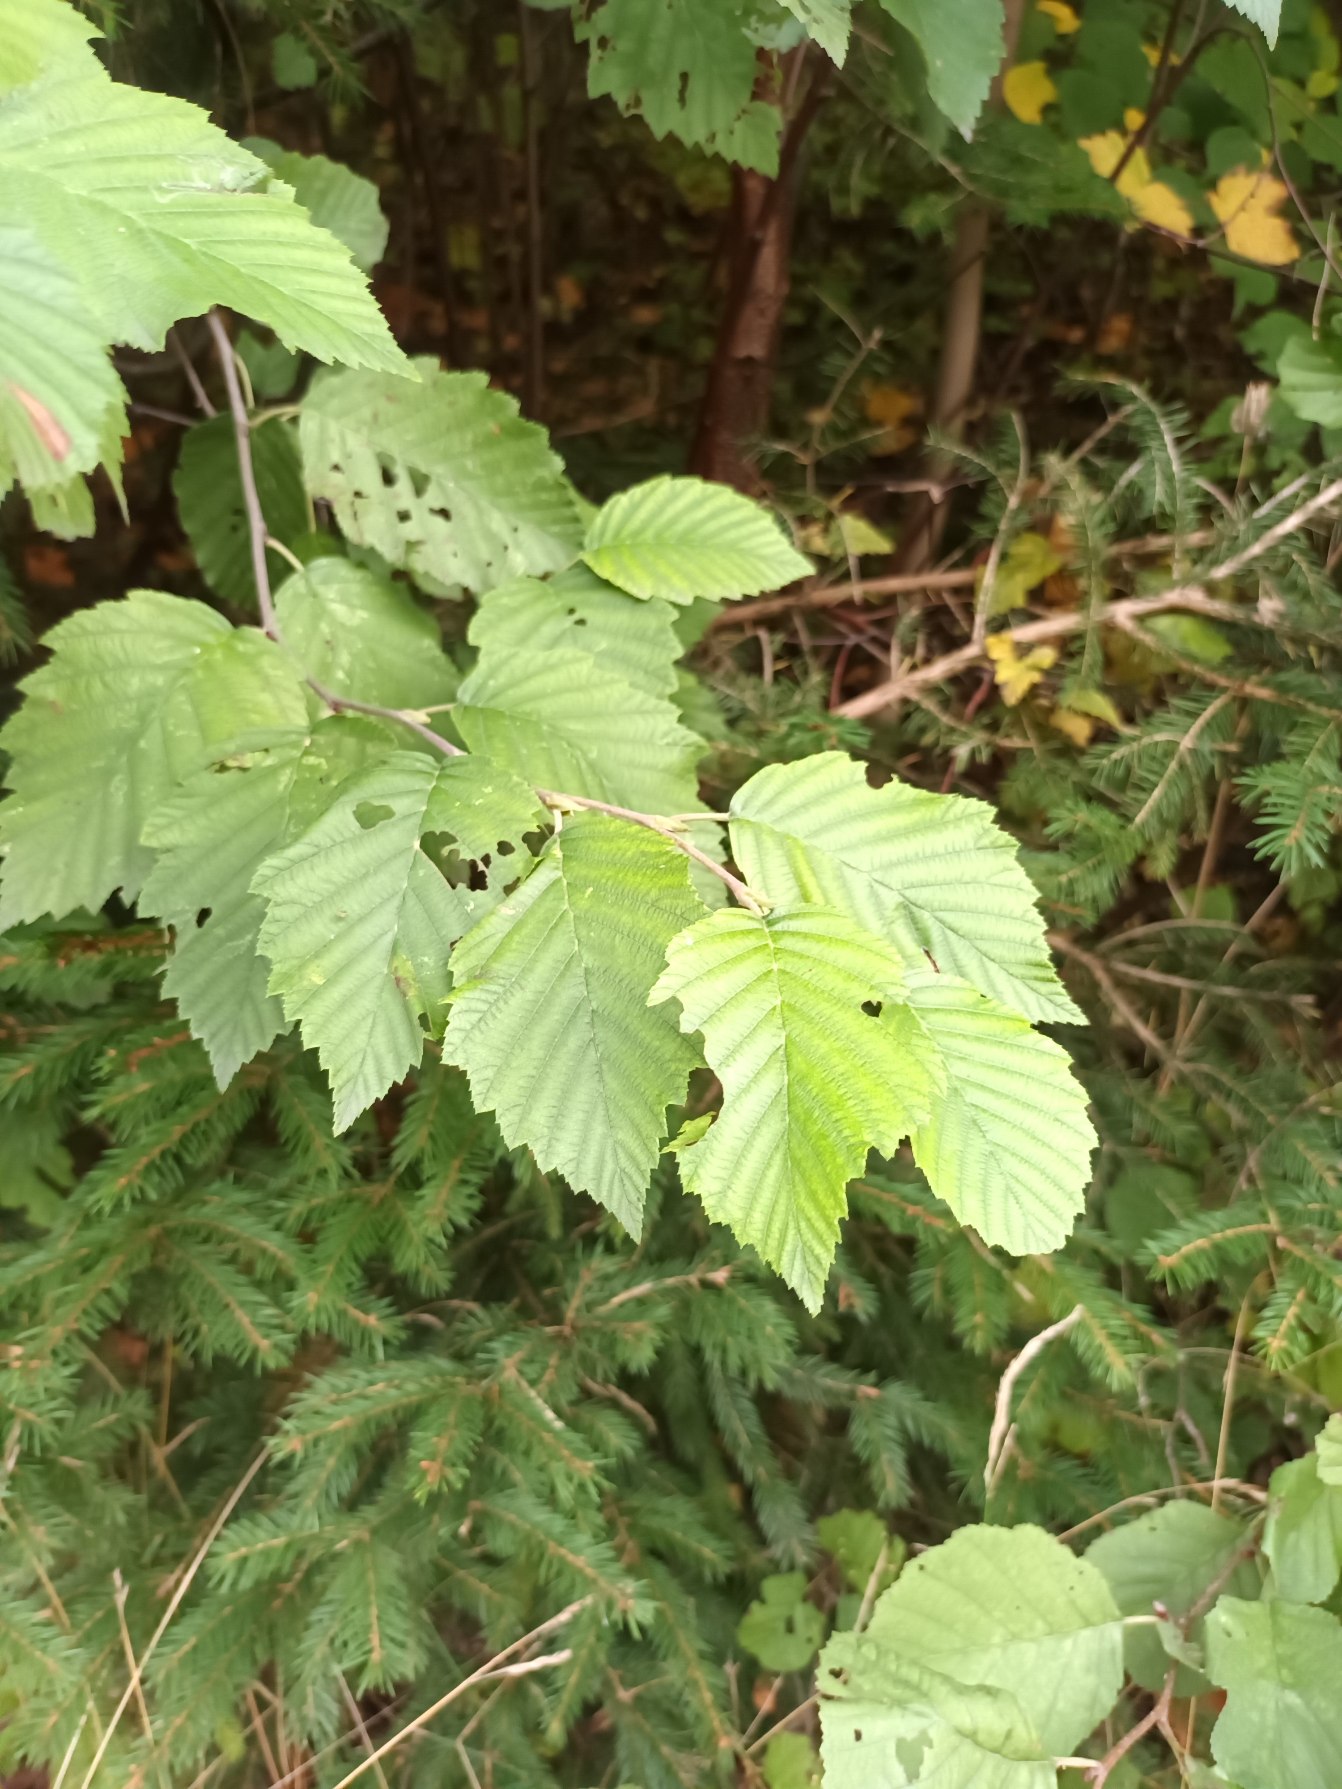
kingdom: Plantae
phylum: Tracheophyta
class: Magnoliopsida
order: Fagales
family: Betulaceae
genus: Alnus
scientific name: Alnus incana
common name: Grå-el/hvid-el
